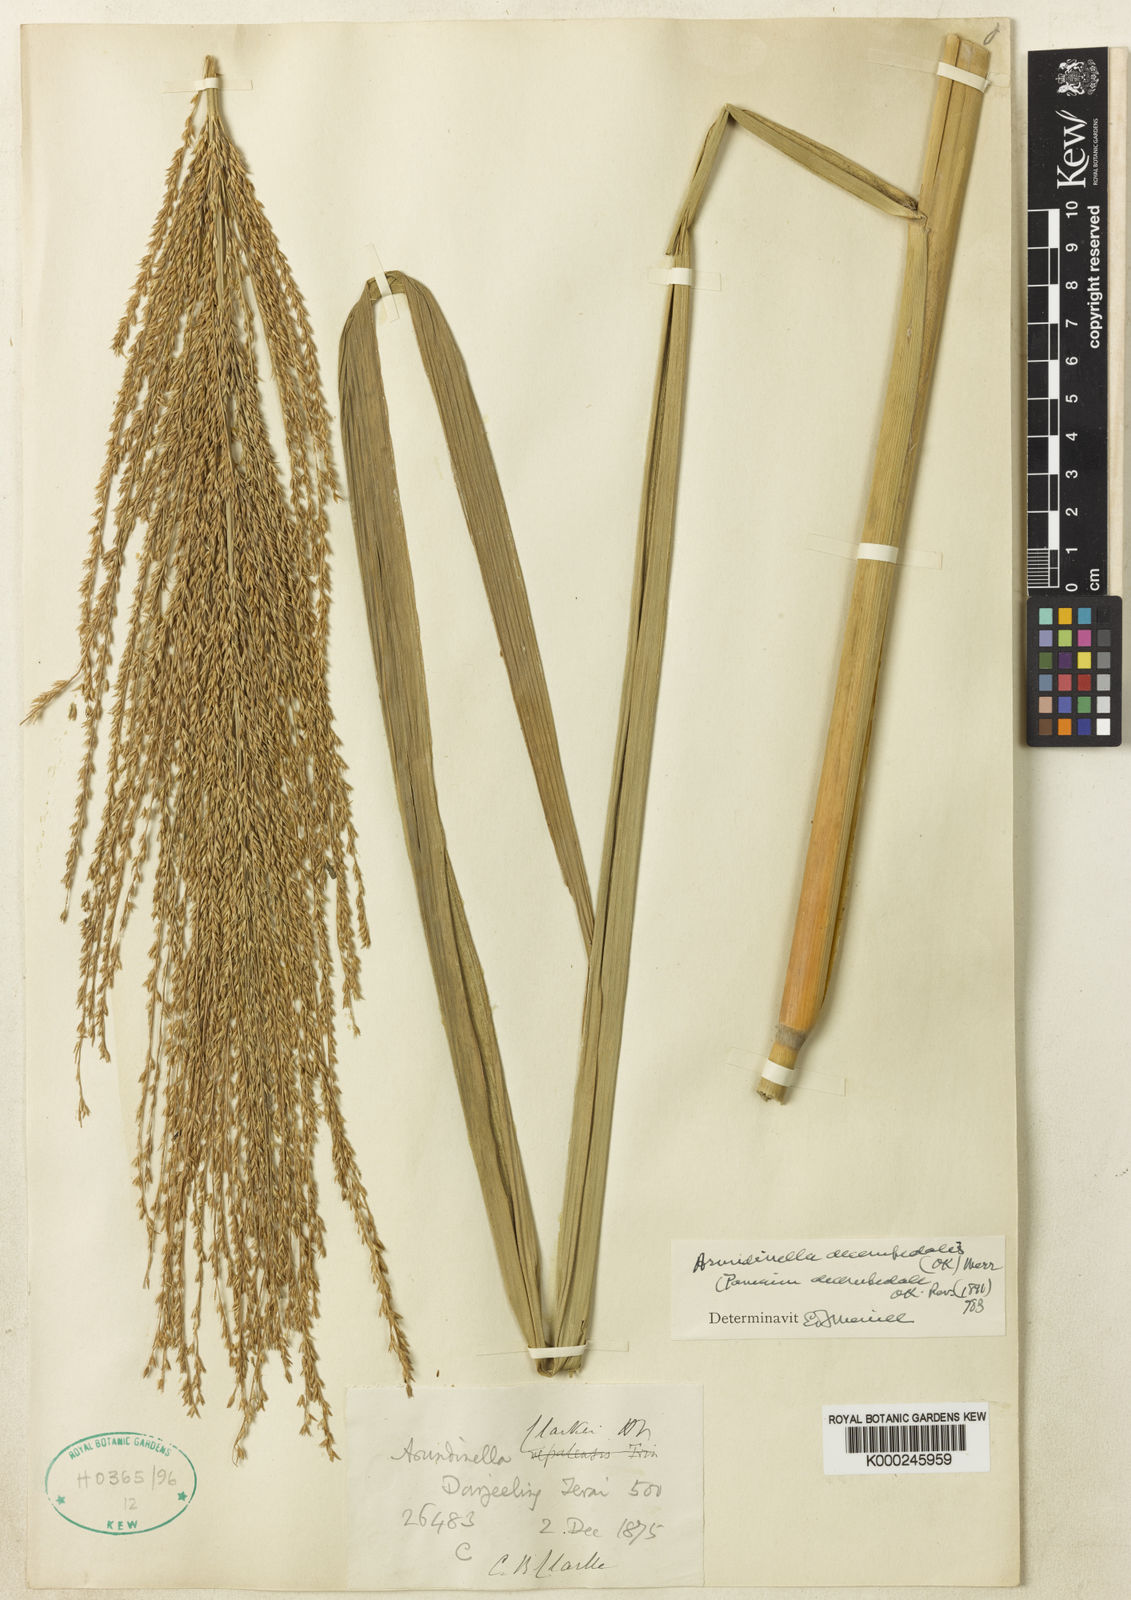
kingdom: Plantae
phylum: Tracheophyta
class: Liliopsida
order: Poales
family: Poaceae
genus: Arundinella
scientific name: Arundinella decempedalis
